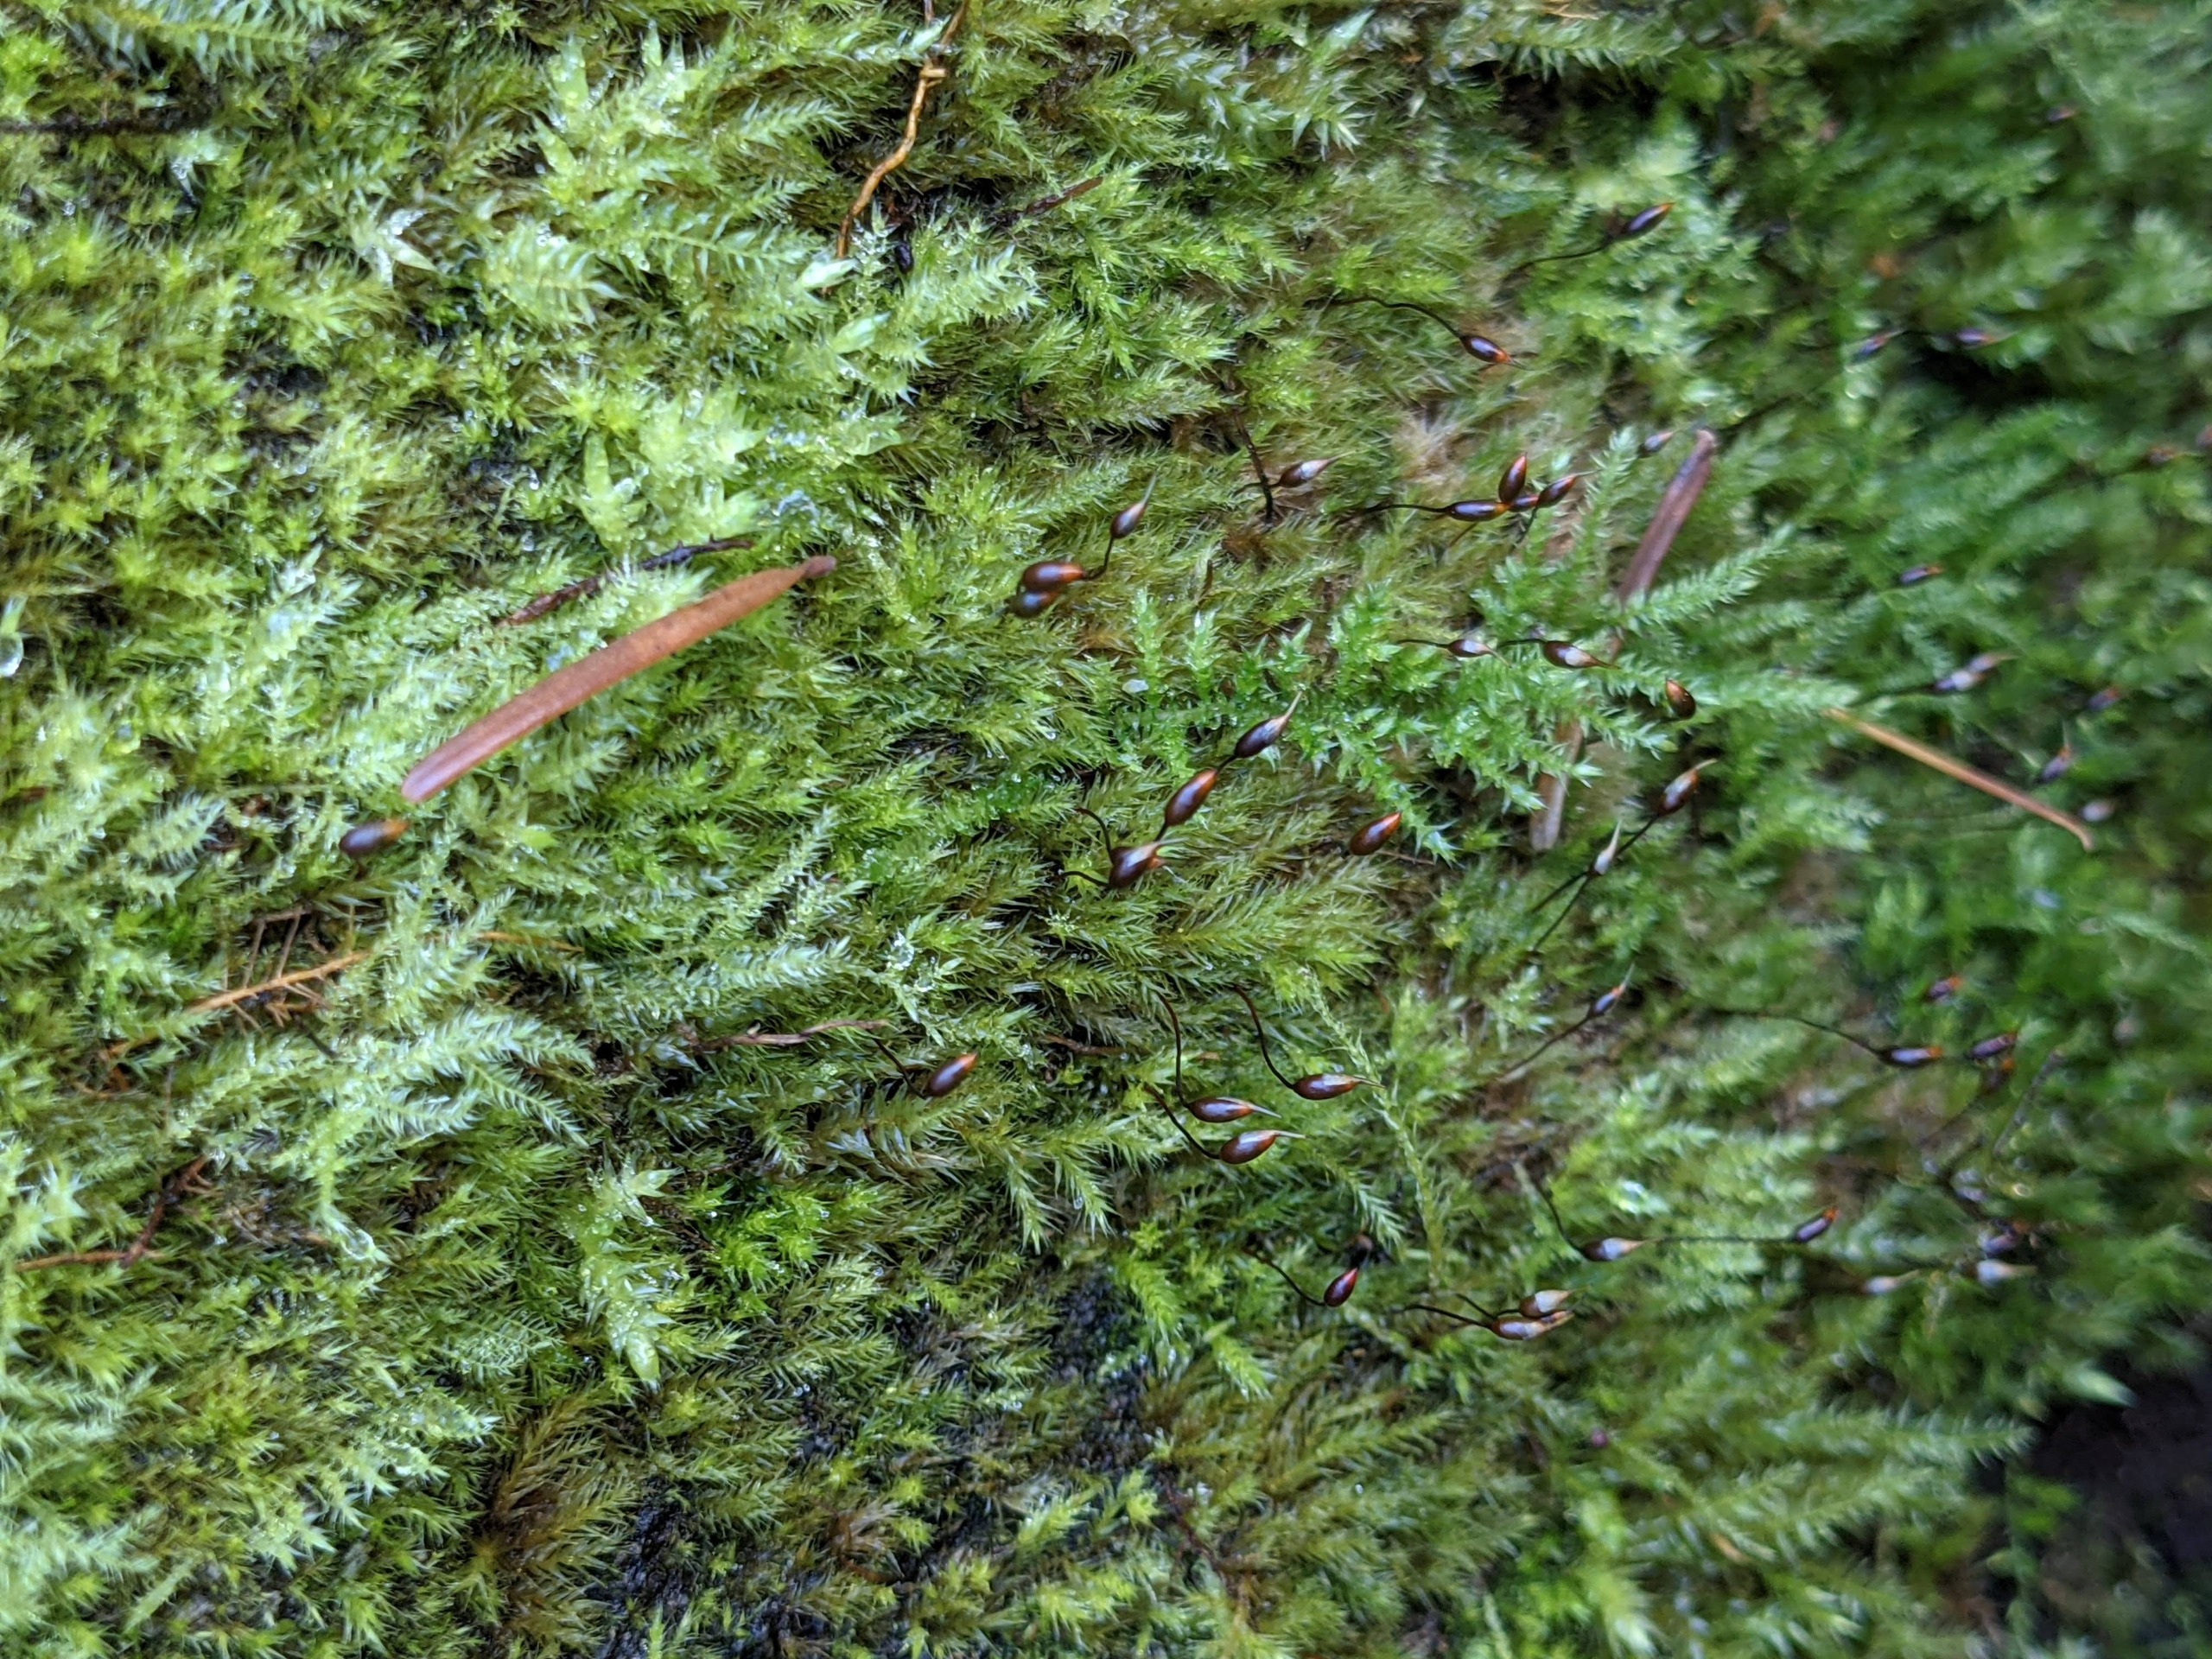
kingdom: Plantae
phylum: Bryophyta
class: Bryopsida
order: Hypnales
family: Brachytheciaceae
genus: Sciuro-hypnum
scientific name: Sciuro-hypnum populeum
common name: Park-kortkapsel
